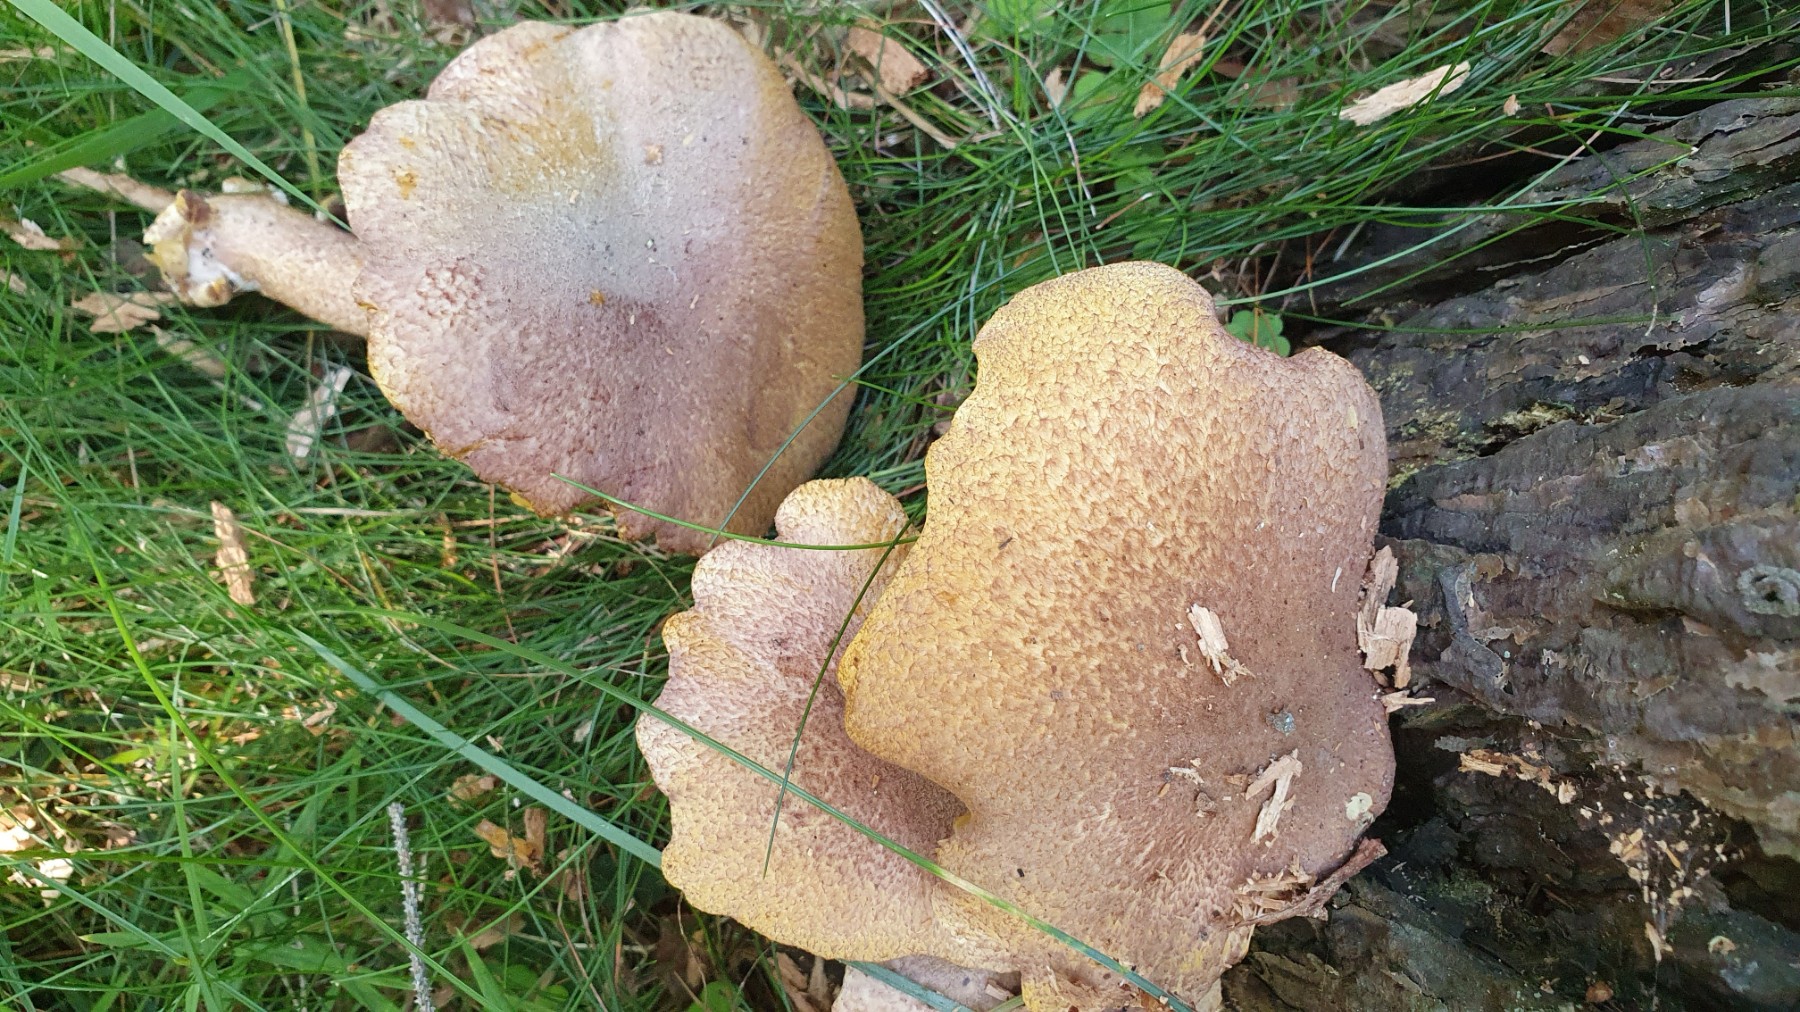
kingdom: Fungi
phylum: Basidiomycota
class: Agaricomycetes
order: Agaricales
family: Tricholomataceae
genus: Tricholomopsis
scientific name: Tricholomopsis rutilans
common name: purpur-væbnerhat
